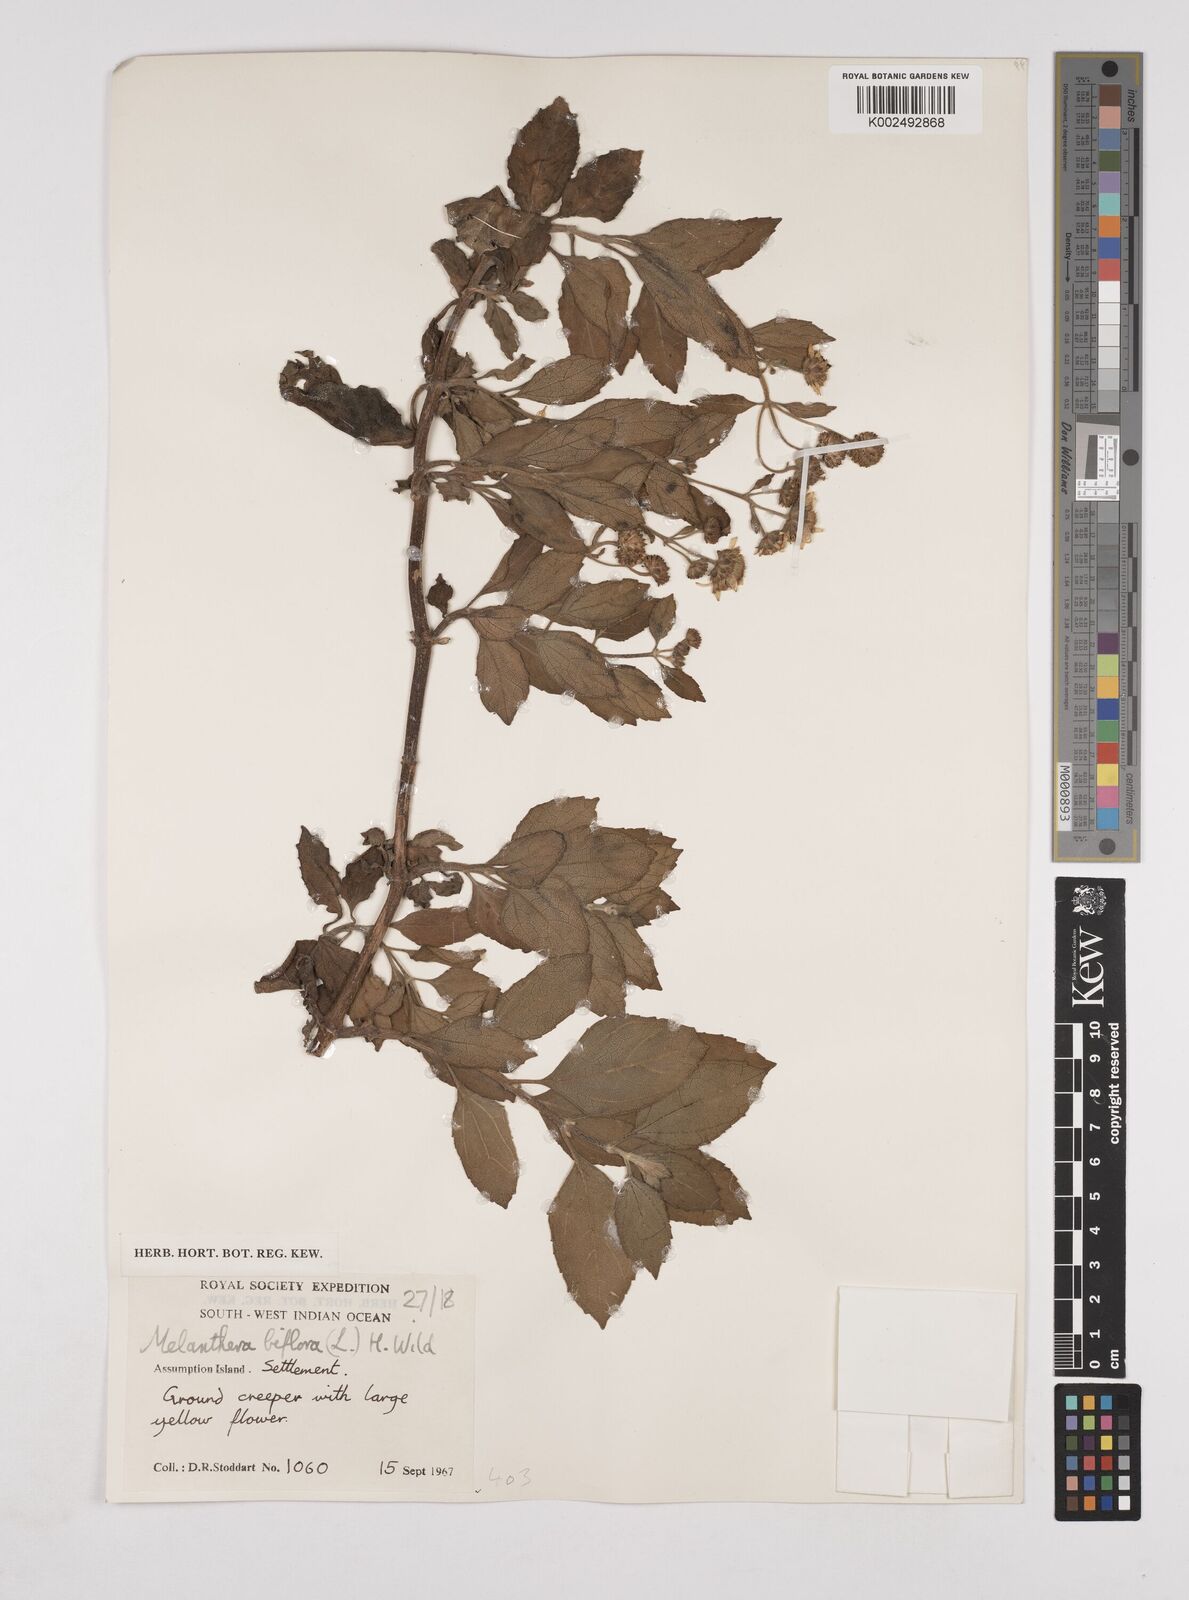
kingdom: Plantae
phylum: Tracheophyta
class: Magnoliopsida
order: Asterales
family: Asteraceae
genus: Wollastonia
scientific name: Wollastonia biflora
